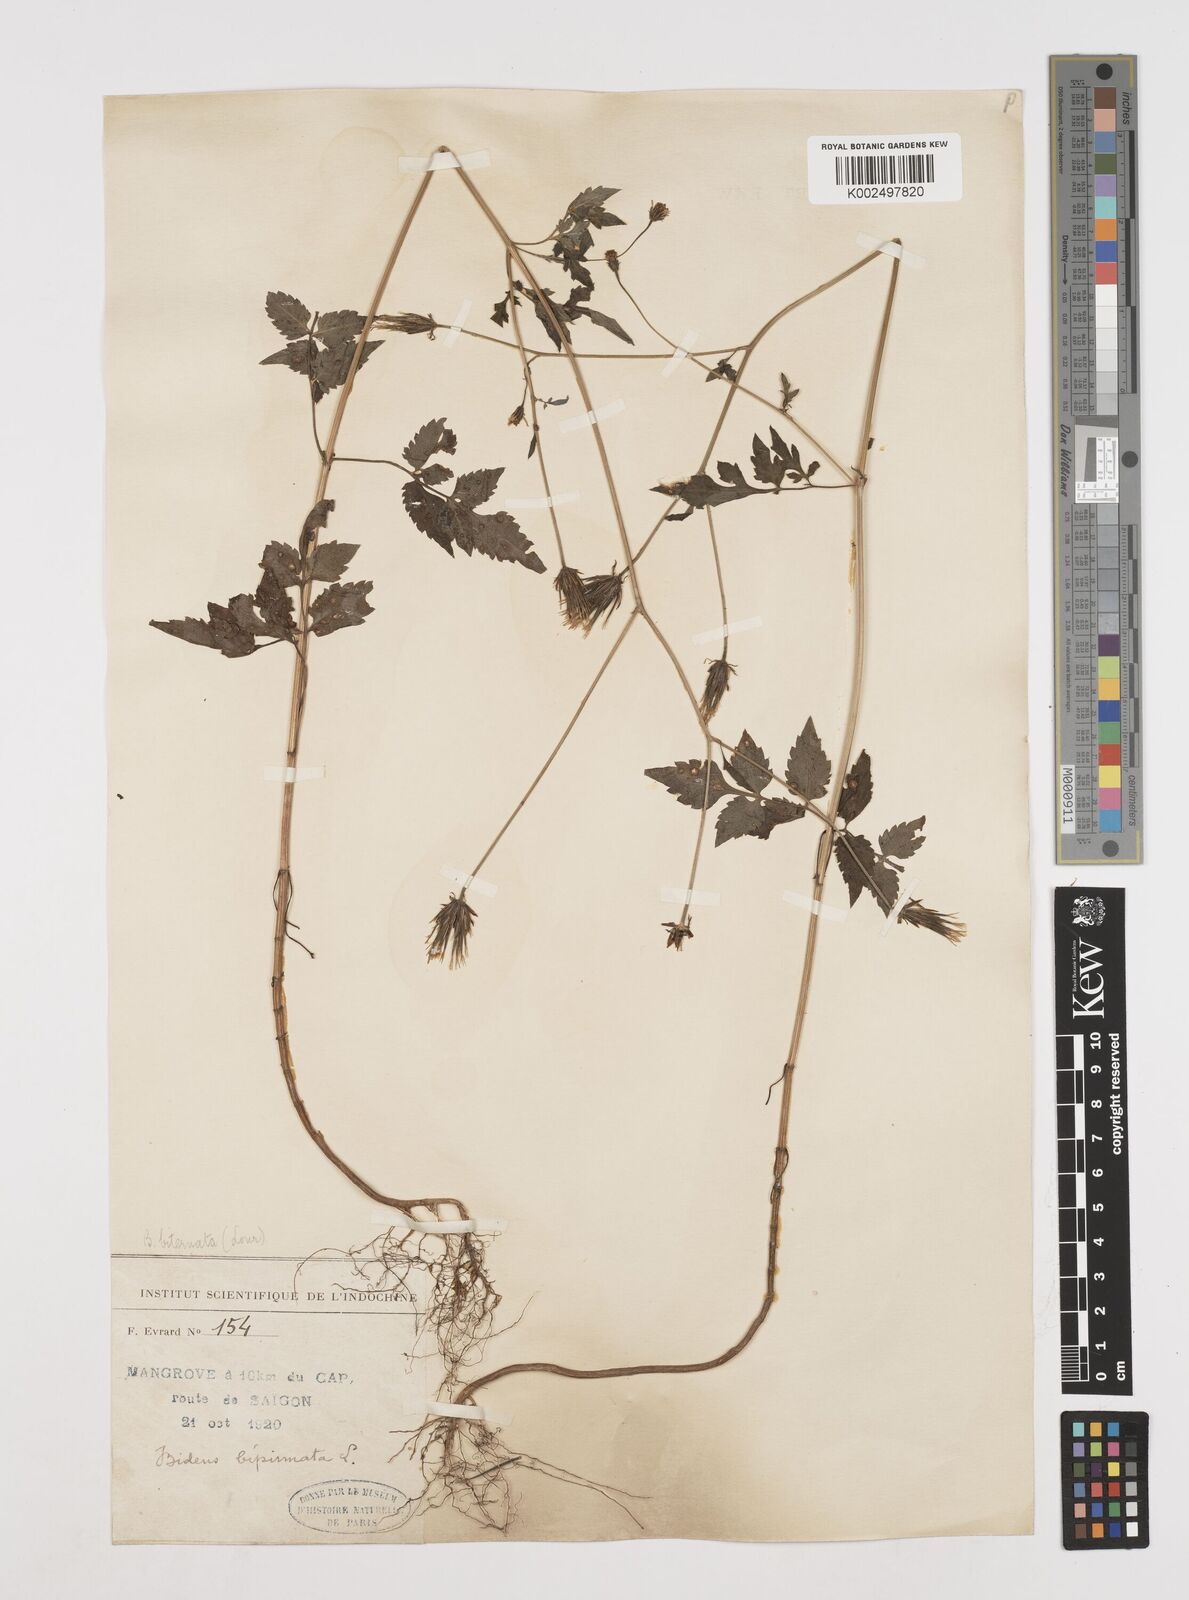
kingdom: Plantae
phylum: Tracheophyta
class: Magnoliopsida
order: Asterales
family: Asteraceae
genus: Bidens
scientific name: Bidens biternata
